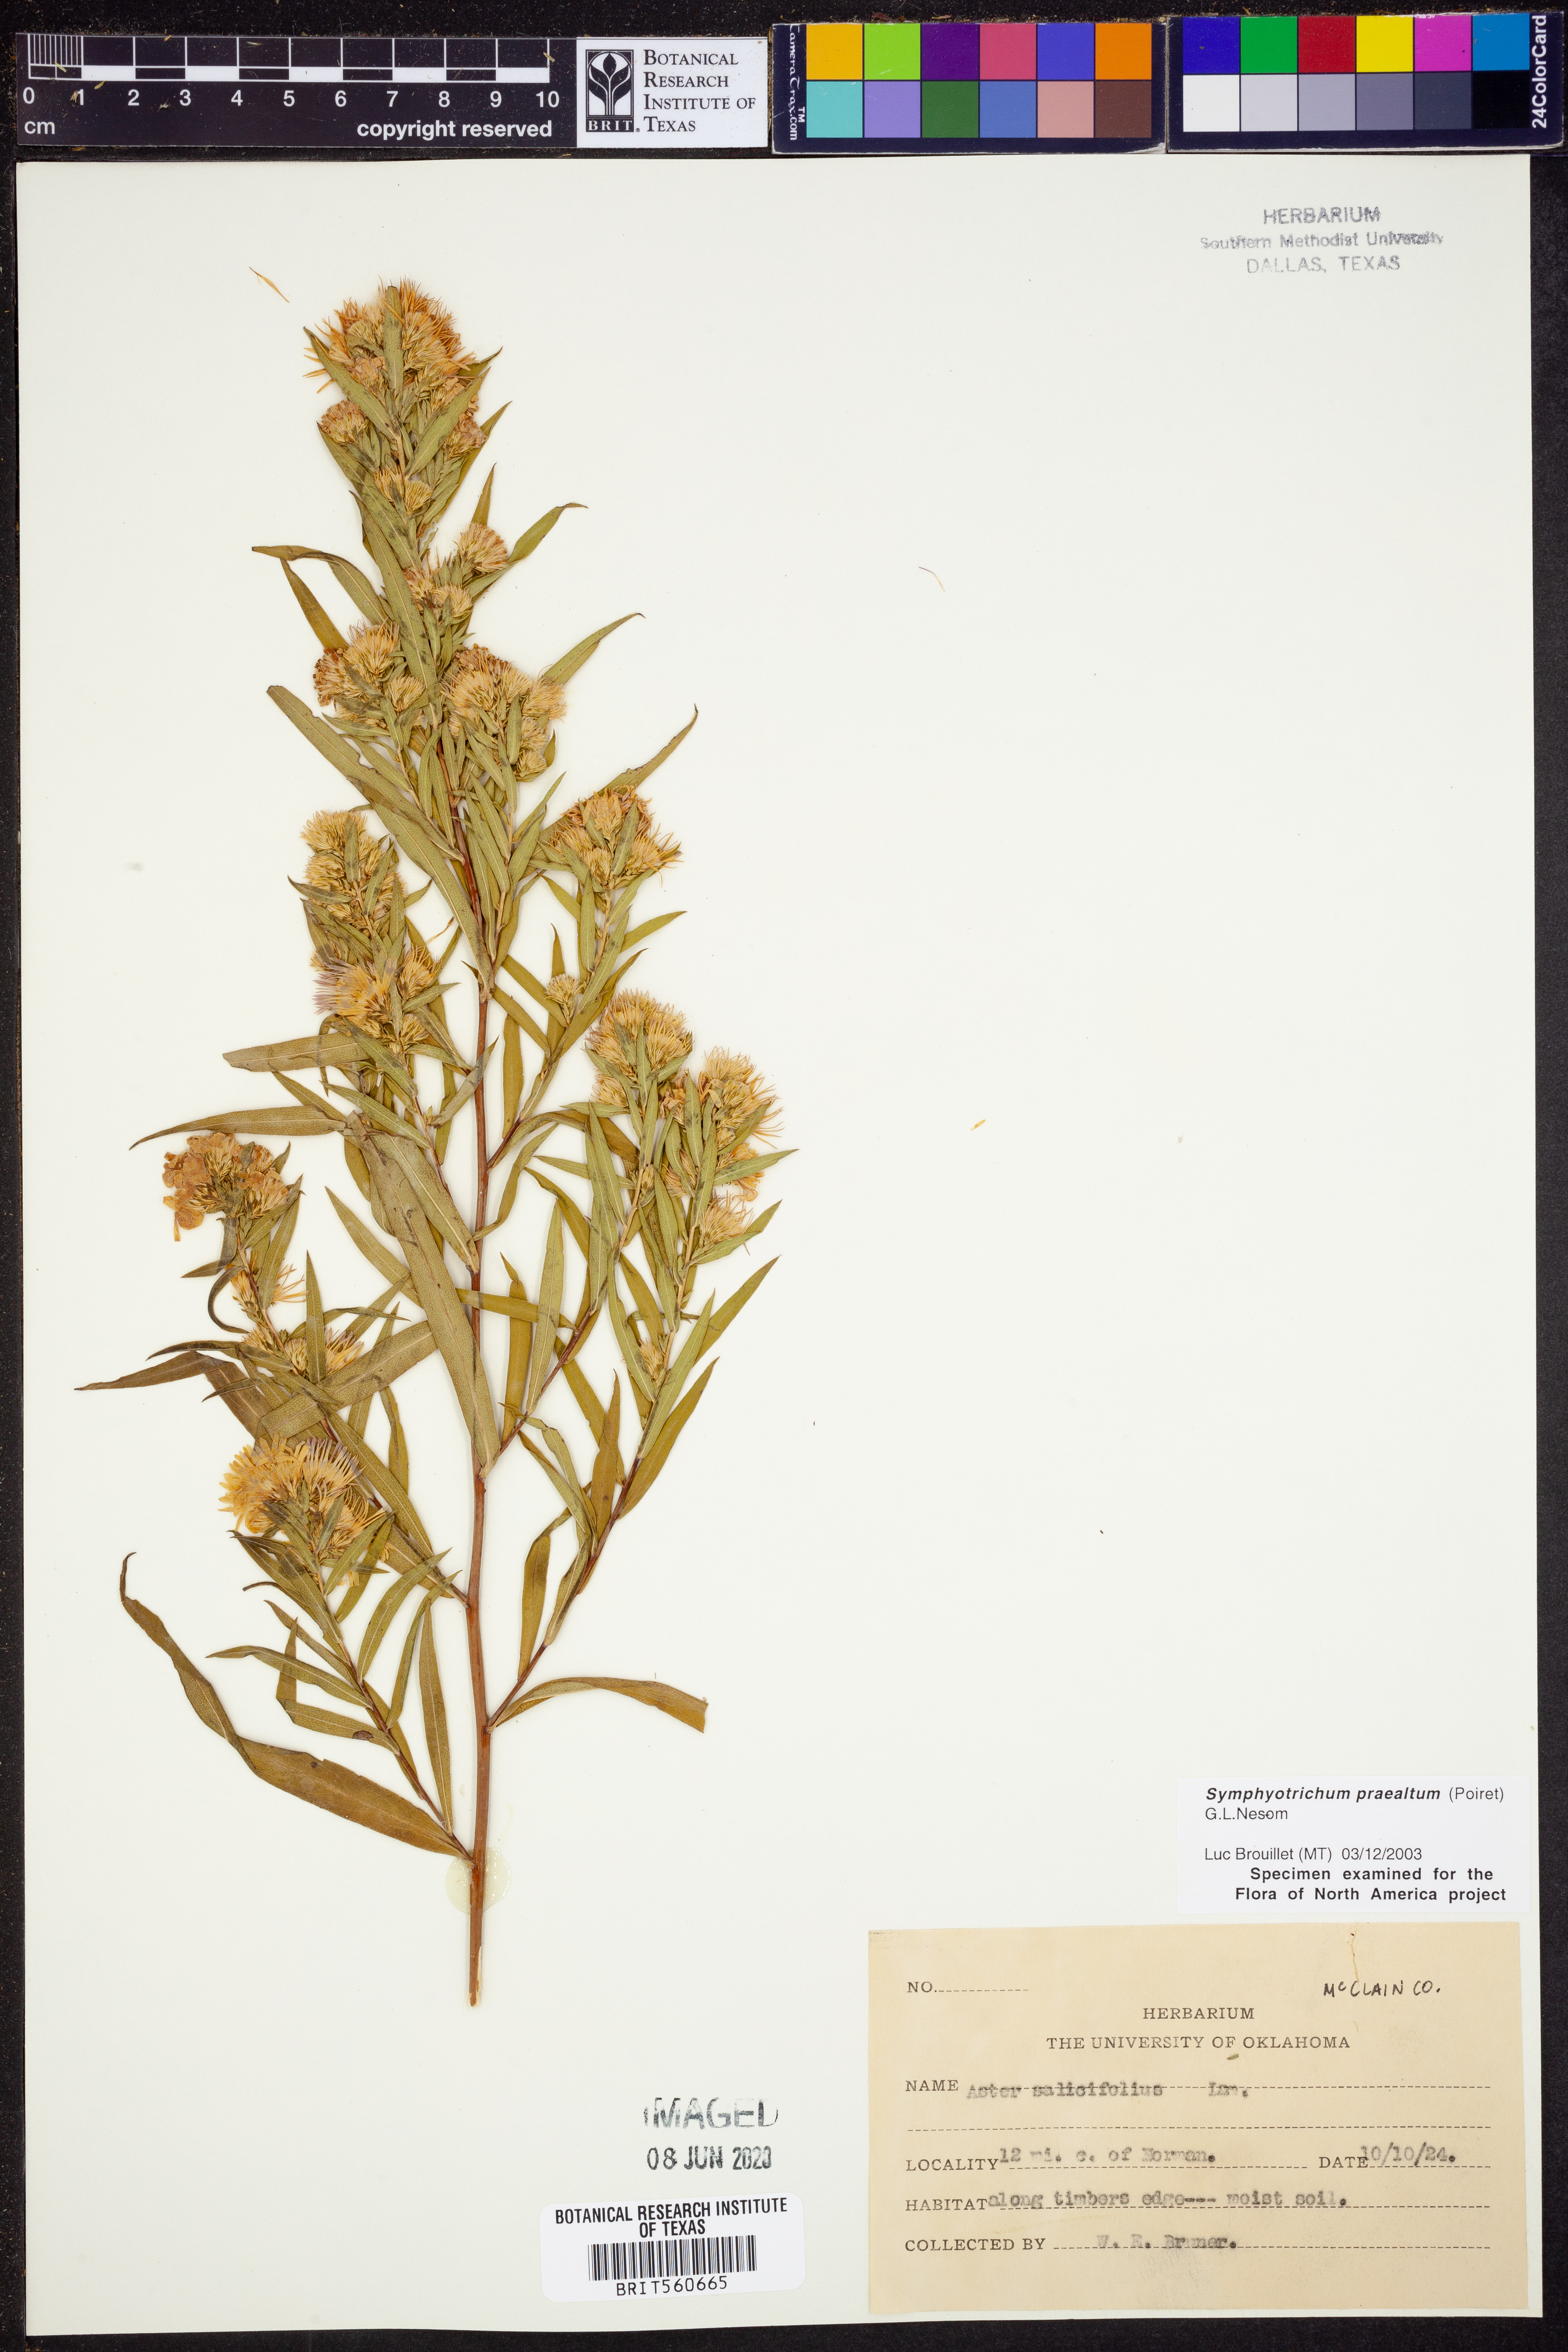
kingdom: Plantae
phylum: Tracheophyta
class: Magnoliopsida
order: Asterales
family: Asteraceae
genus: Symphyotrichum
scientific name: Symphyotrichum praealtum
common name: Willow aster
